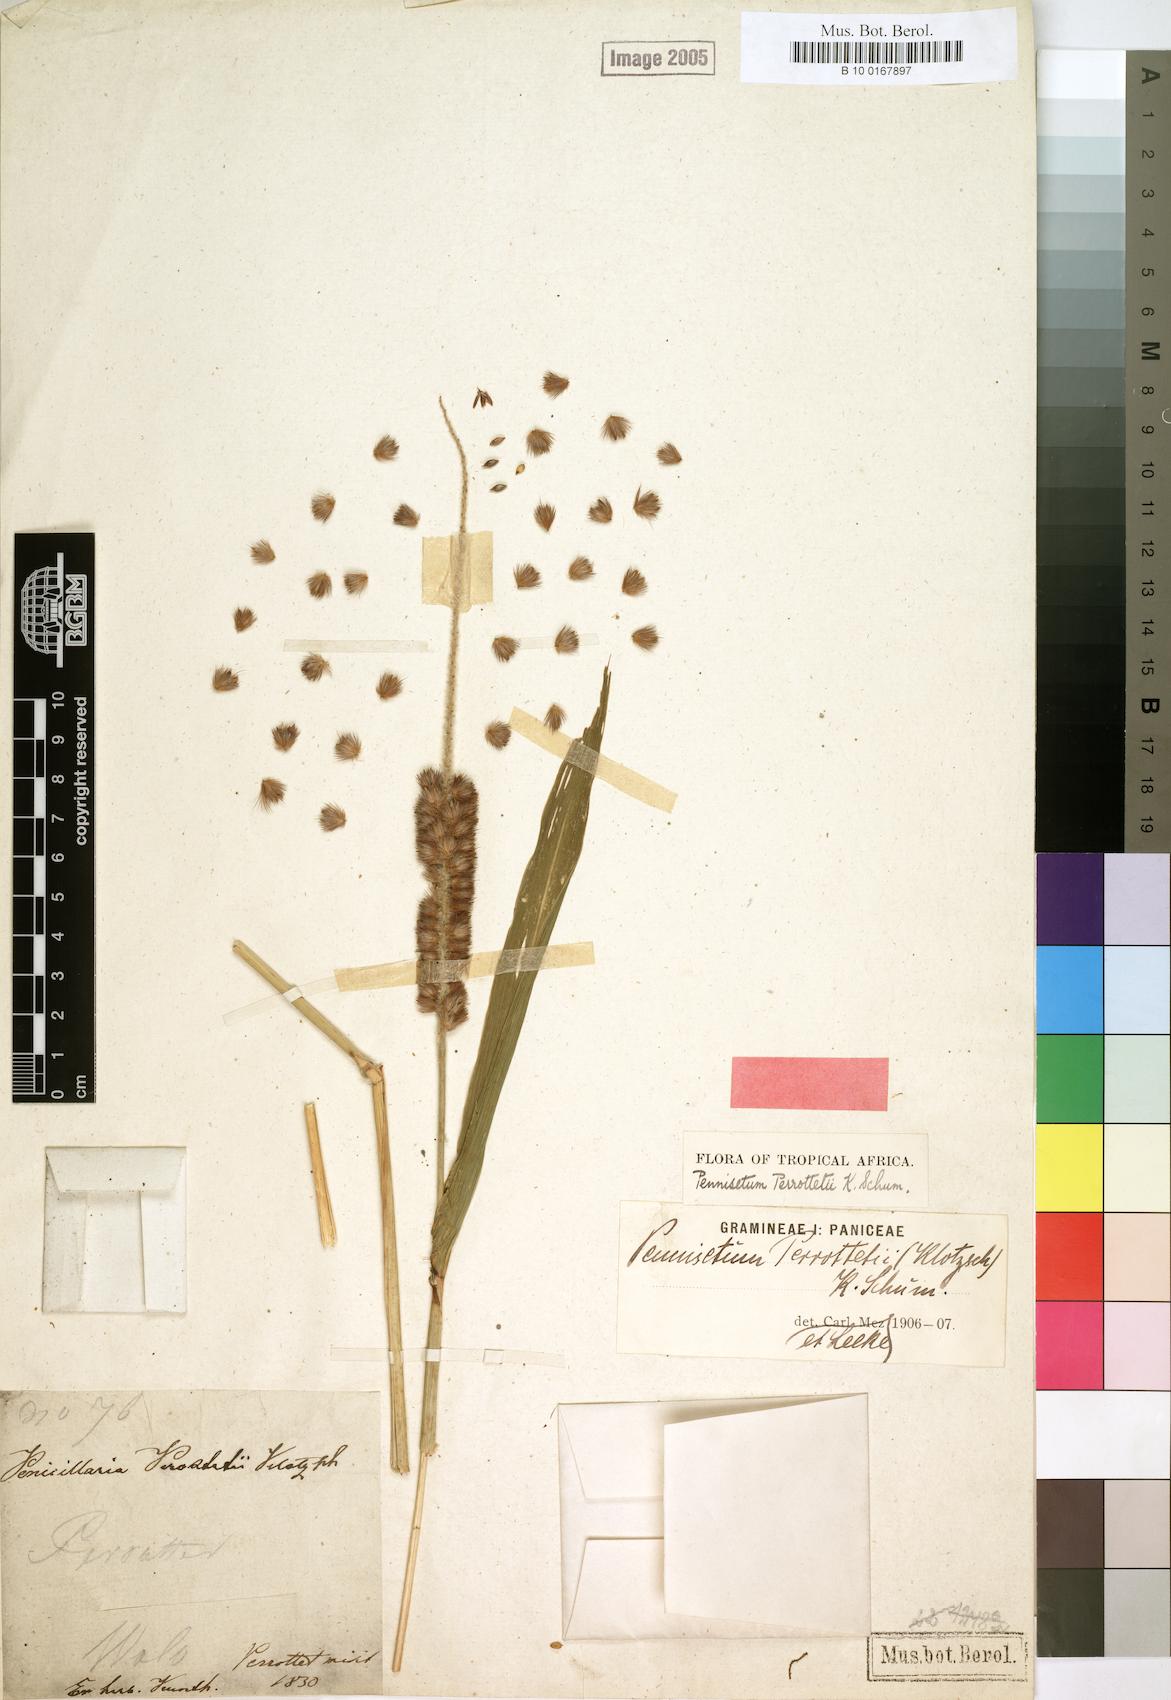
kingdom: Plantae
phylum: Tracheophyta
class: Liliopsida
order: Poales
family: Poaceae
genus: Cenchrus
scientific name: Cenchrus sieberianus
